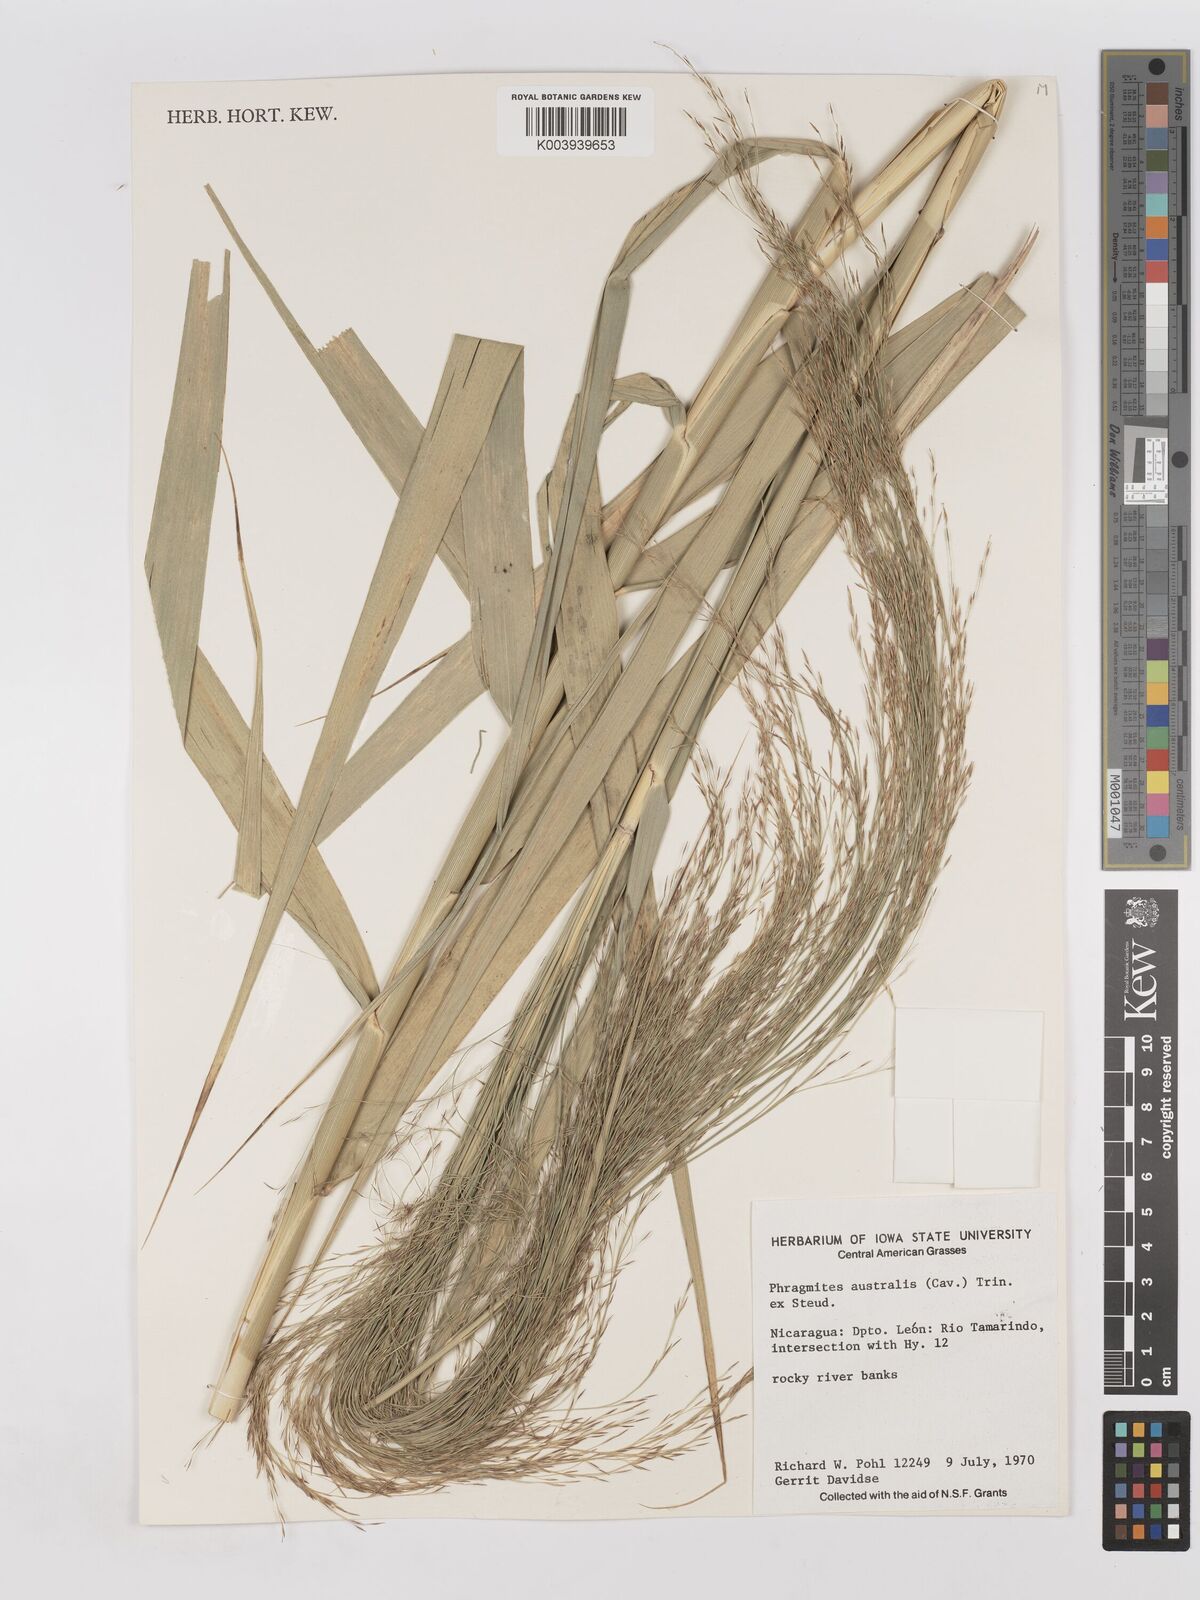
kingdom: Plantae
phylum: Tracheophyta
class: Liliopsida
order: Poales
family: Poaceae
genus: Phragmites
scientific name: Phragmites australis
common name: Common reed
